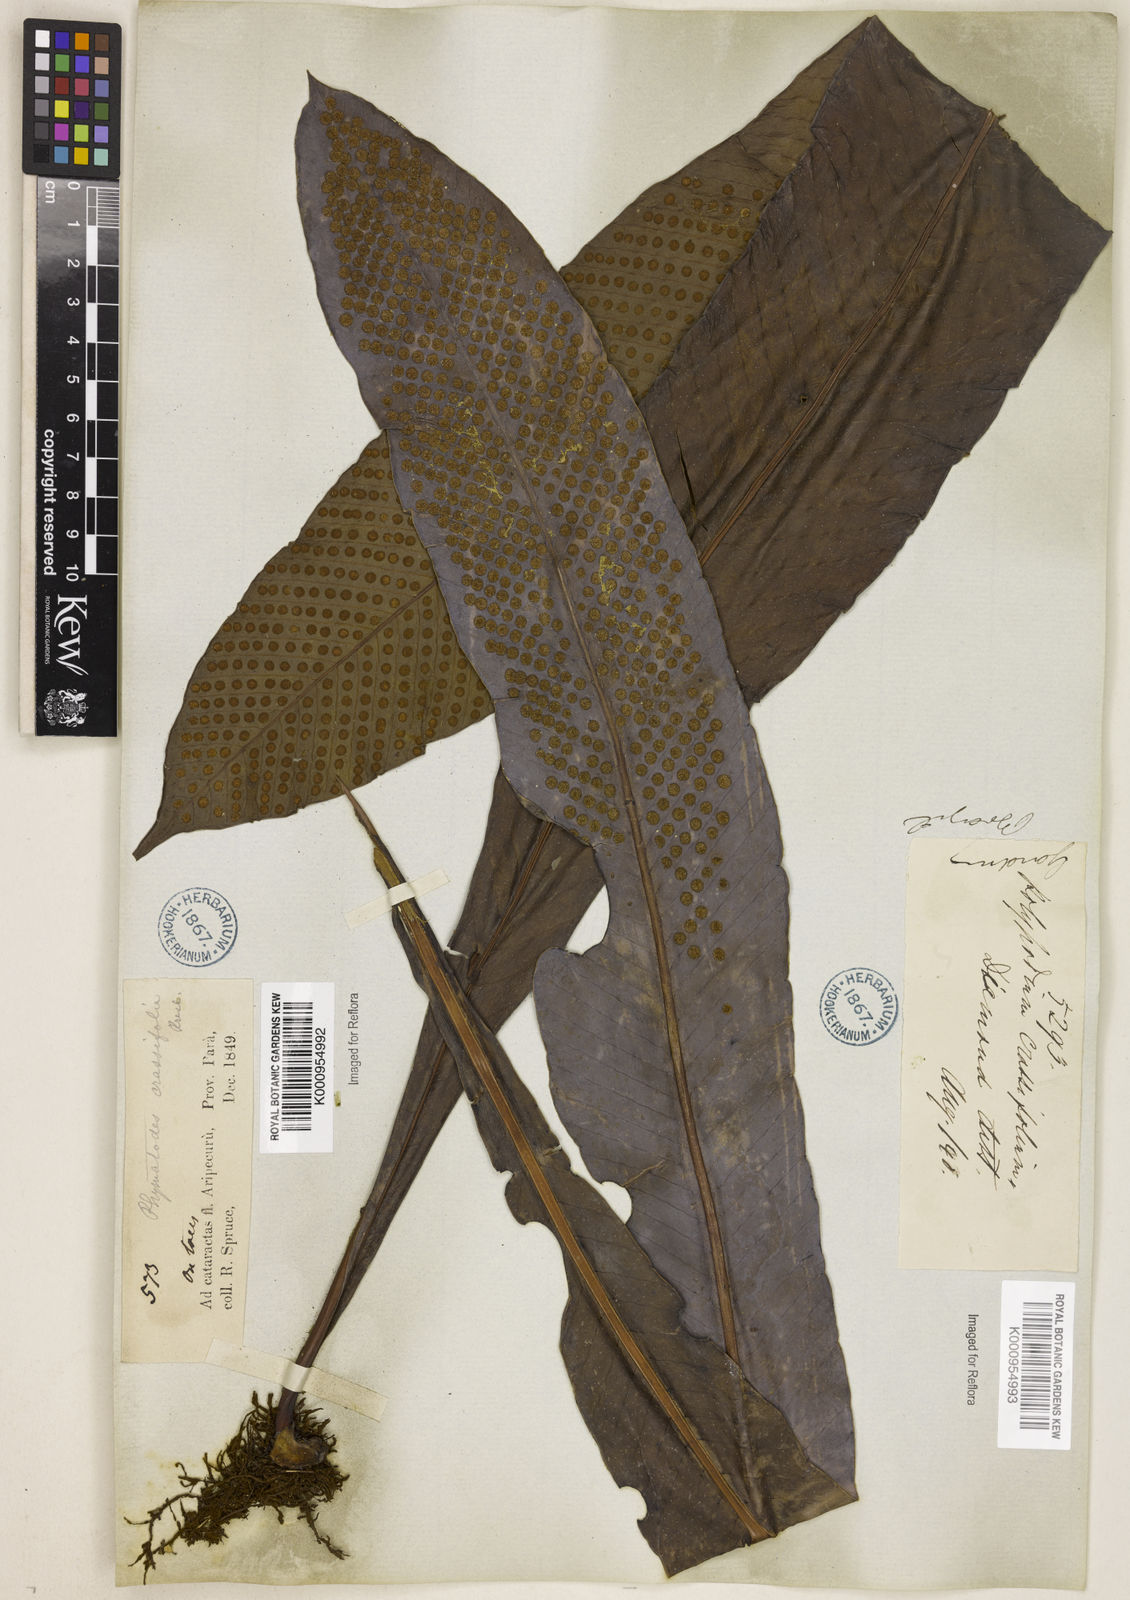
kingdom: Plantae
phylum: Tracheophyta
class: Polypodiopsida
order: Polypodiales
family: Polypodiaceae
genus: Niphidium
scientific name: Niphidium crassifolium
